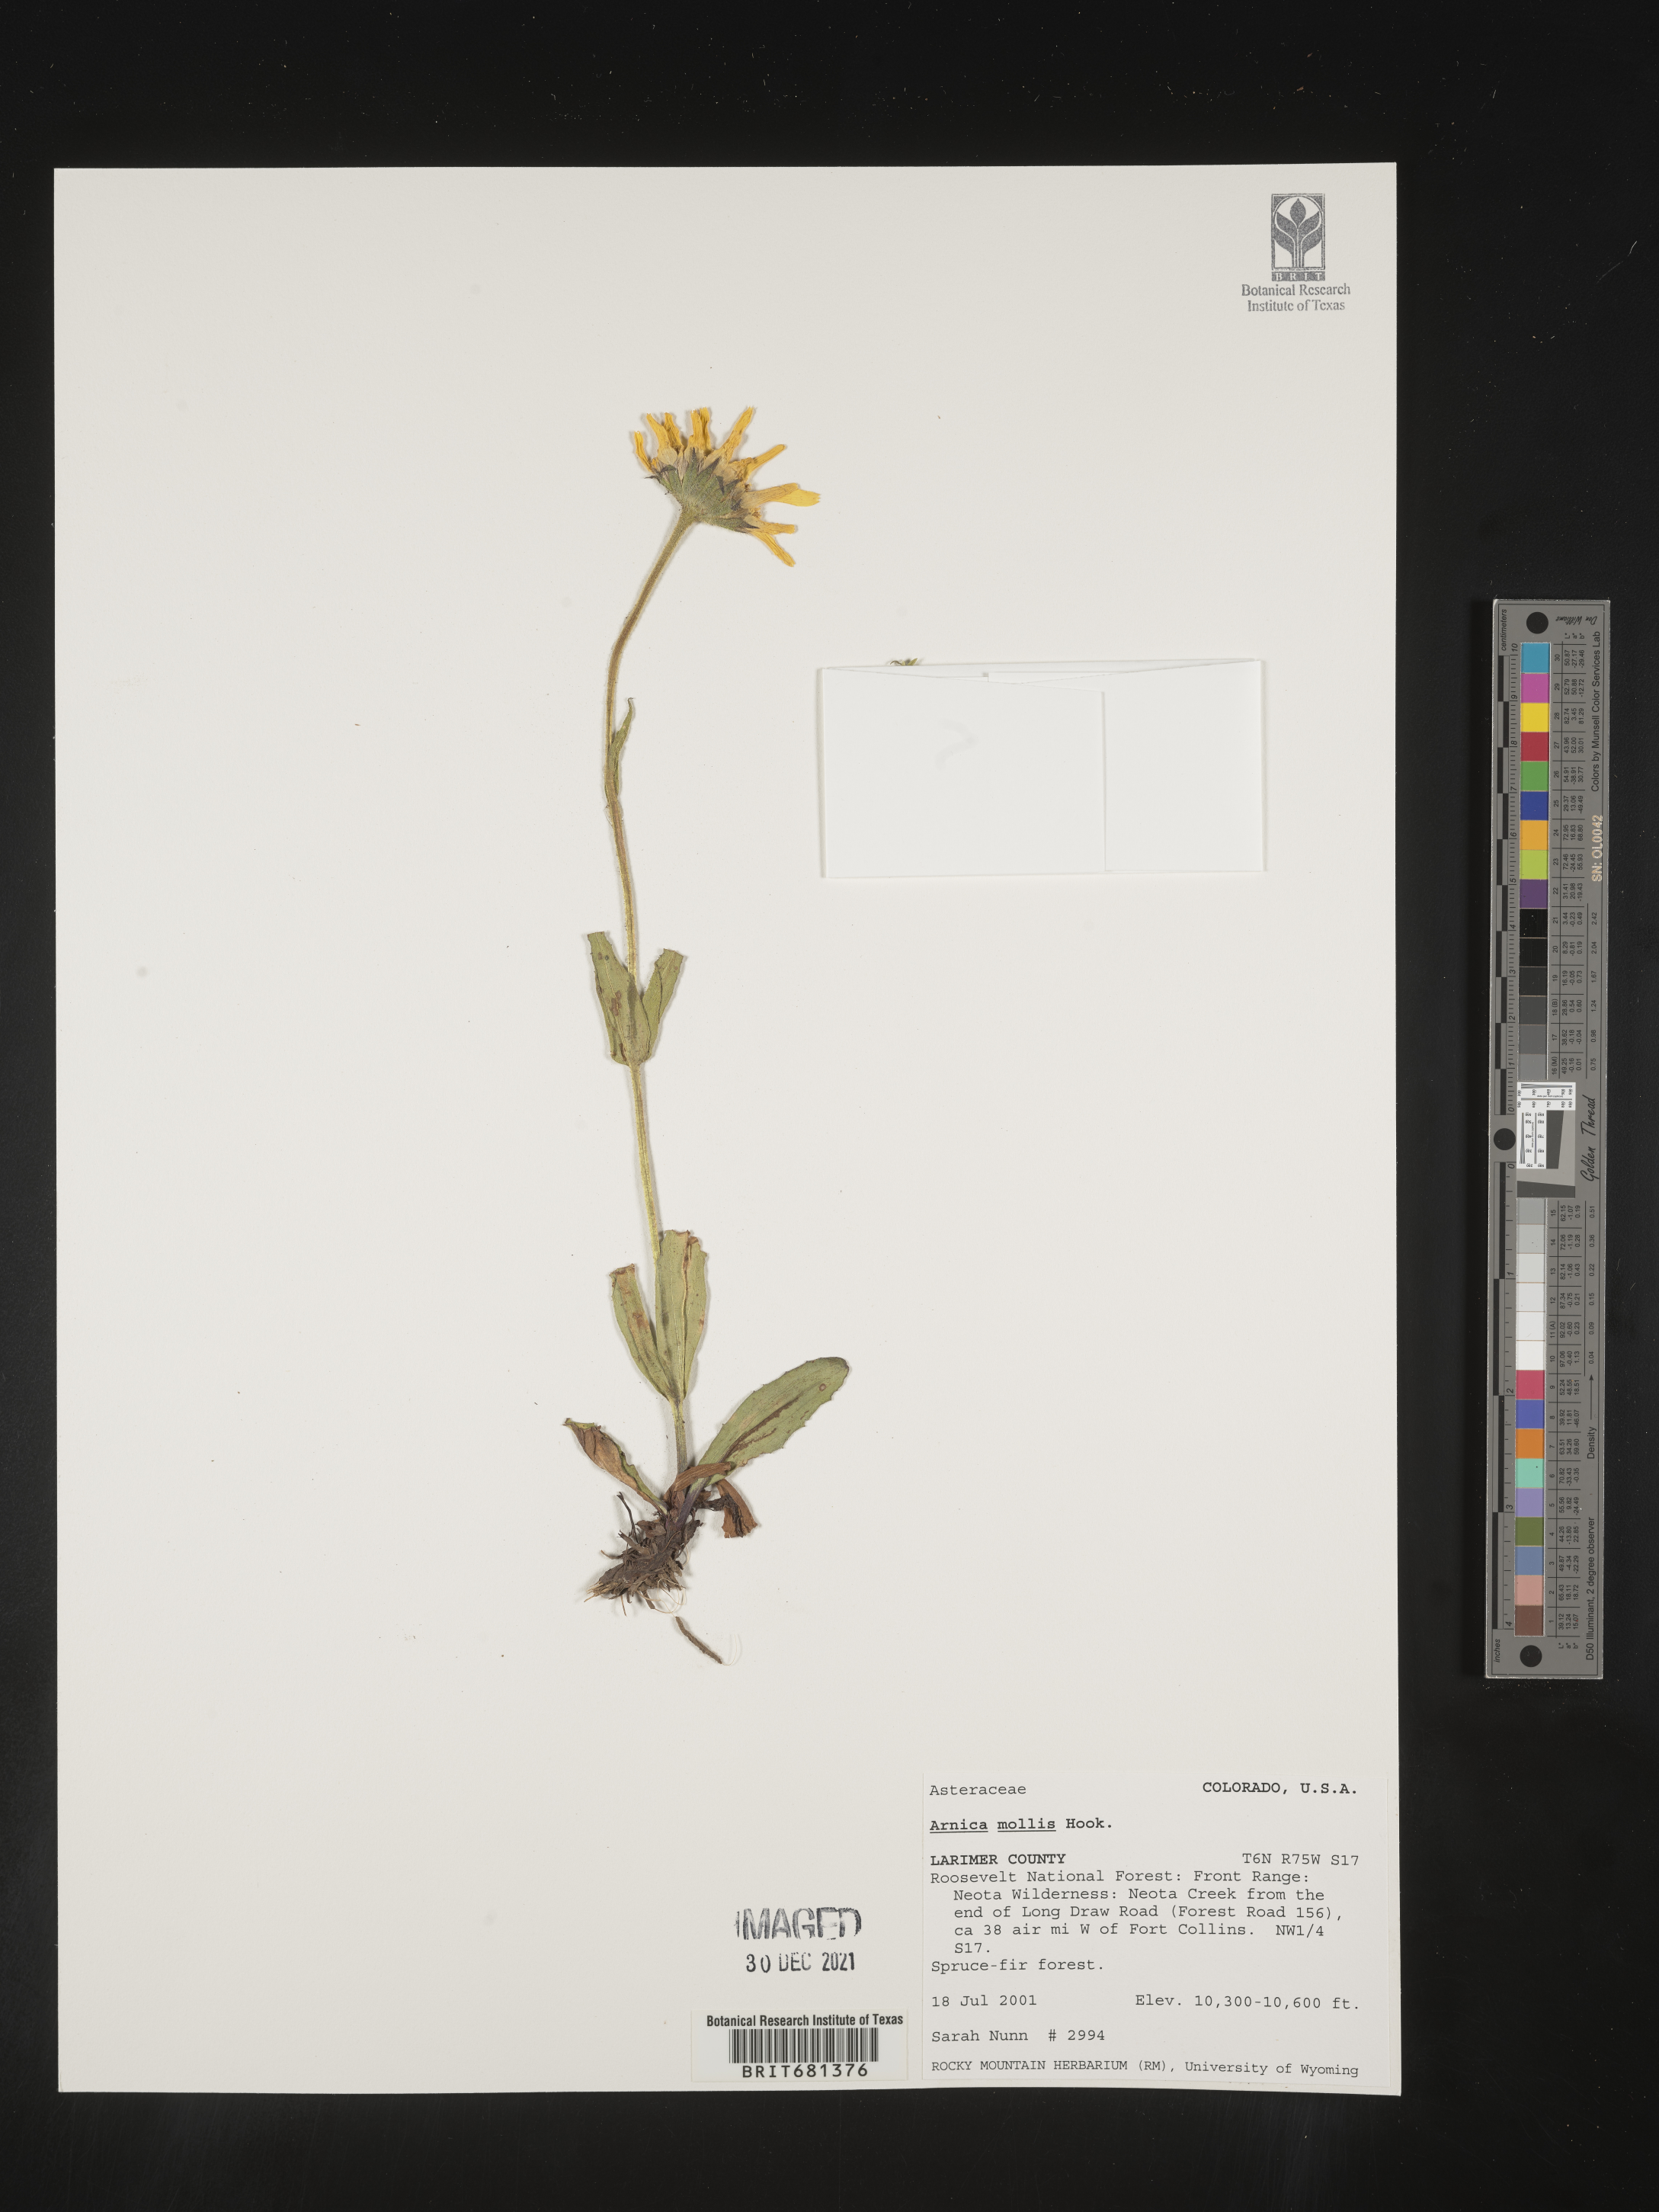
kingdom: Plantae
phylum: Tracheophyta
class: Magnoliopsida
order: Asterales
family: Asteraceae
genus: Arnica
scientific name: Arnica mollis
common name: Hairy arnica
